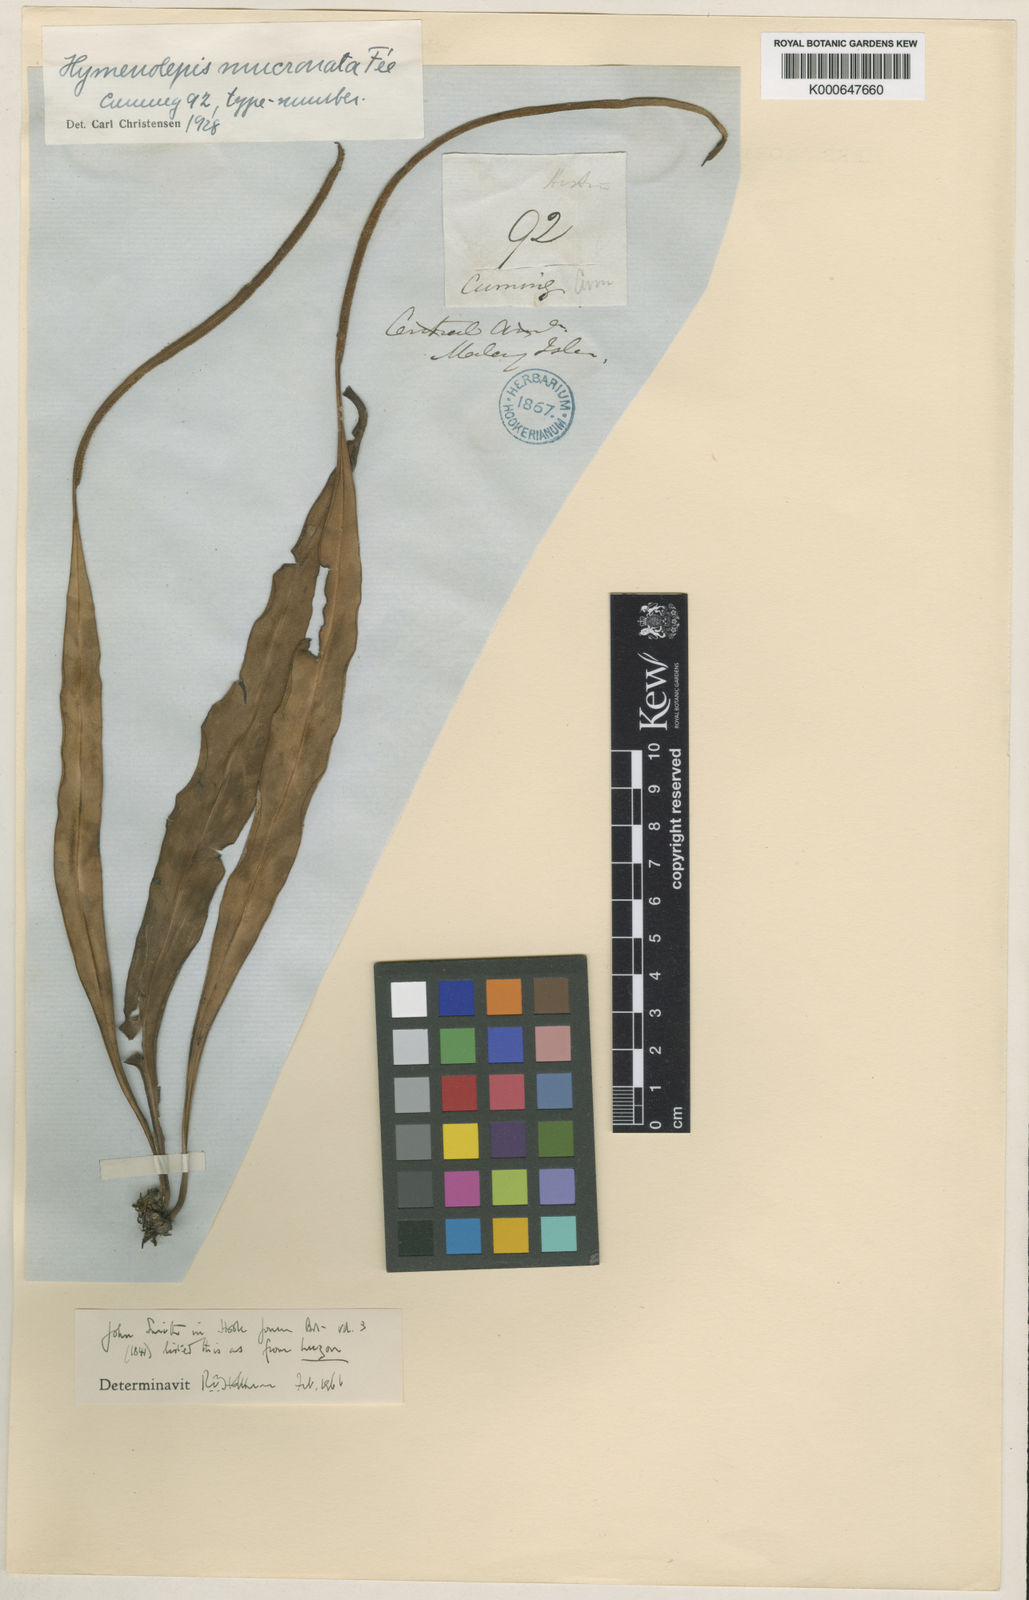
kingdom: Plantae
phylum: Tracheophyta
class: Polypodiopsida
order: Polypodiales
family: Polypodiaceae
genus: Lepisorus
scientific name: Lepisorus mucronatus
